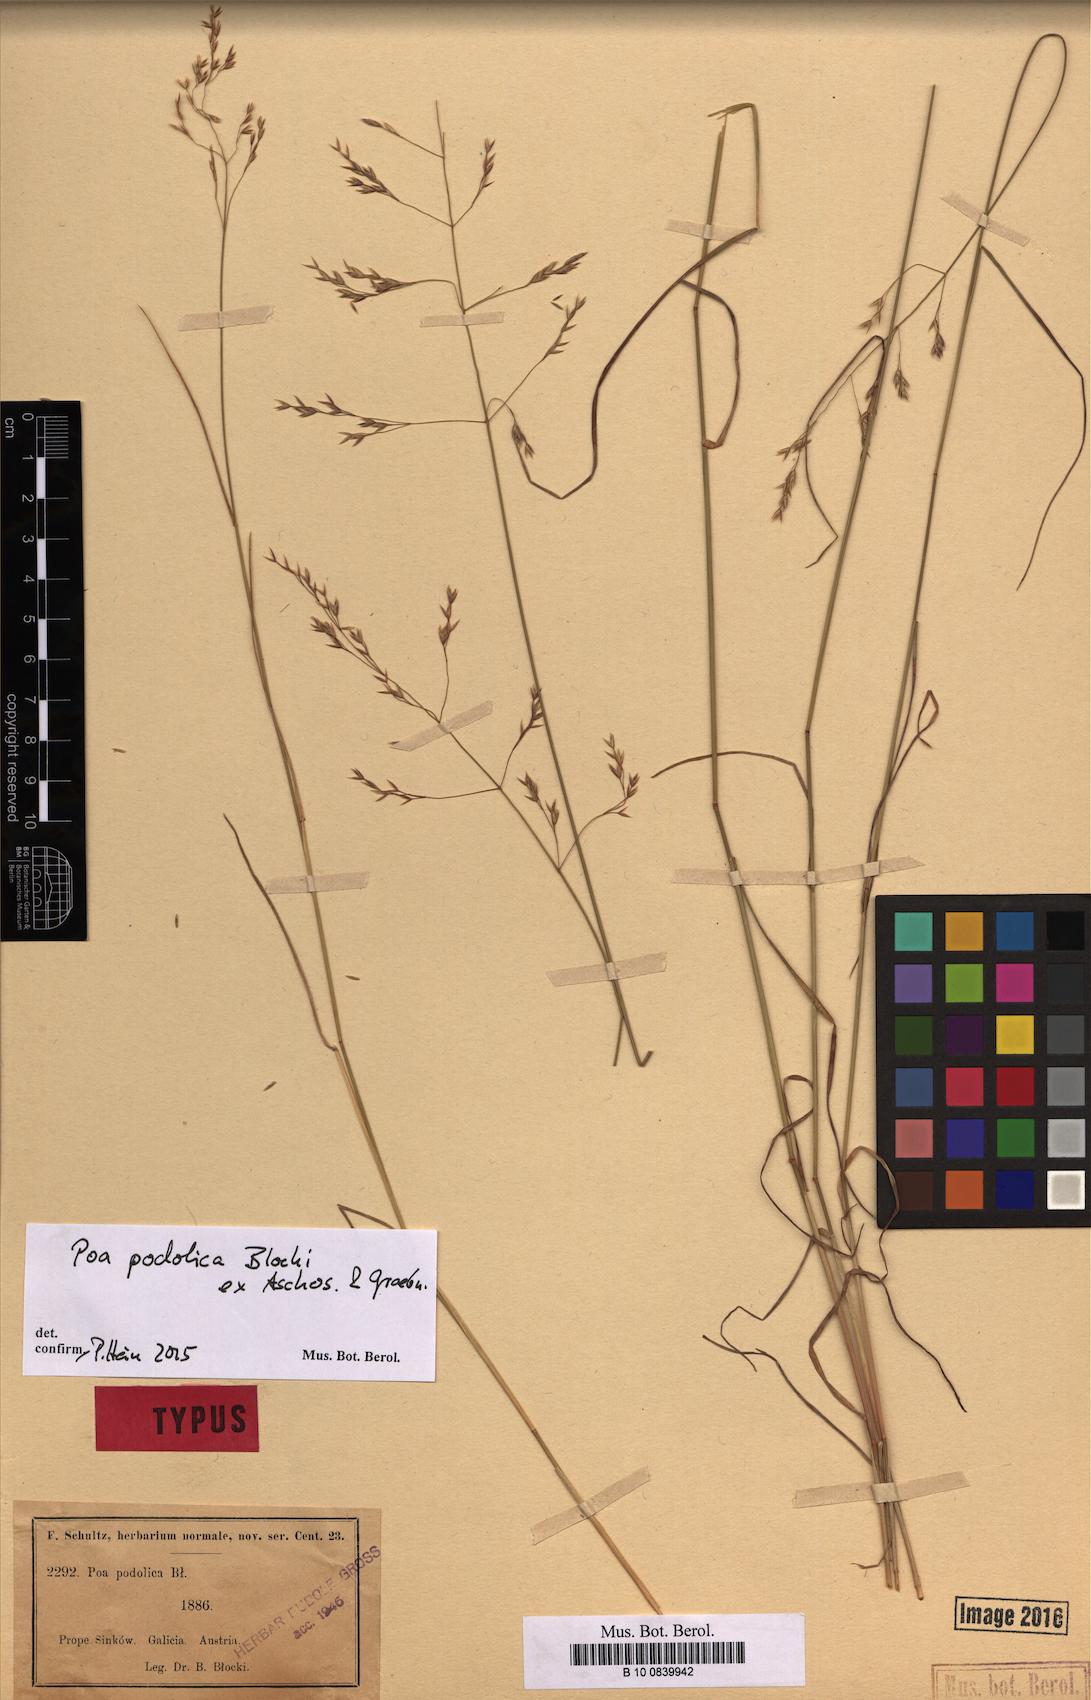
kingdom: Plantae
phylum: Tracheophyta
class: Liliopsida
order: Poales
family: Poaceae
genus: Poa
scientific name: Poa versicolor
